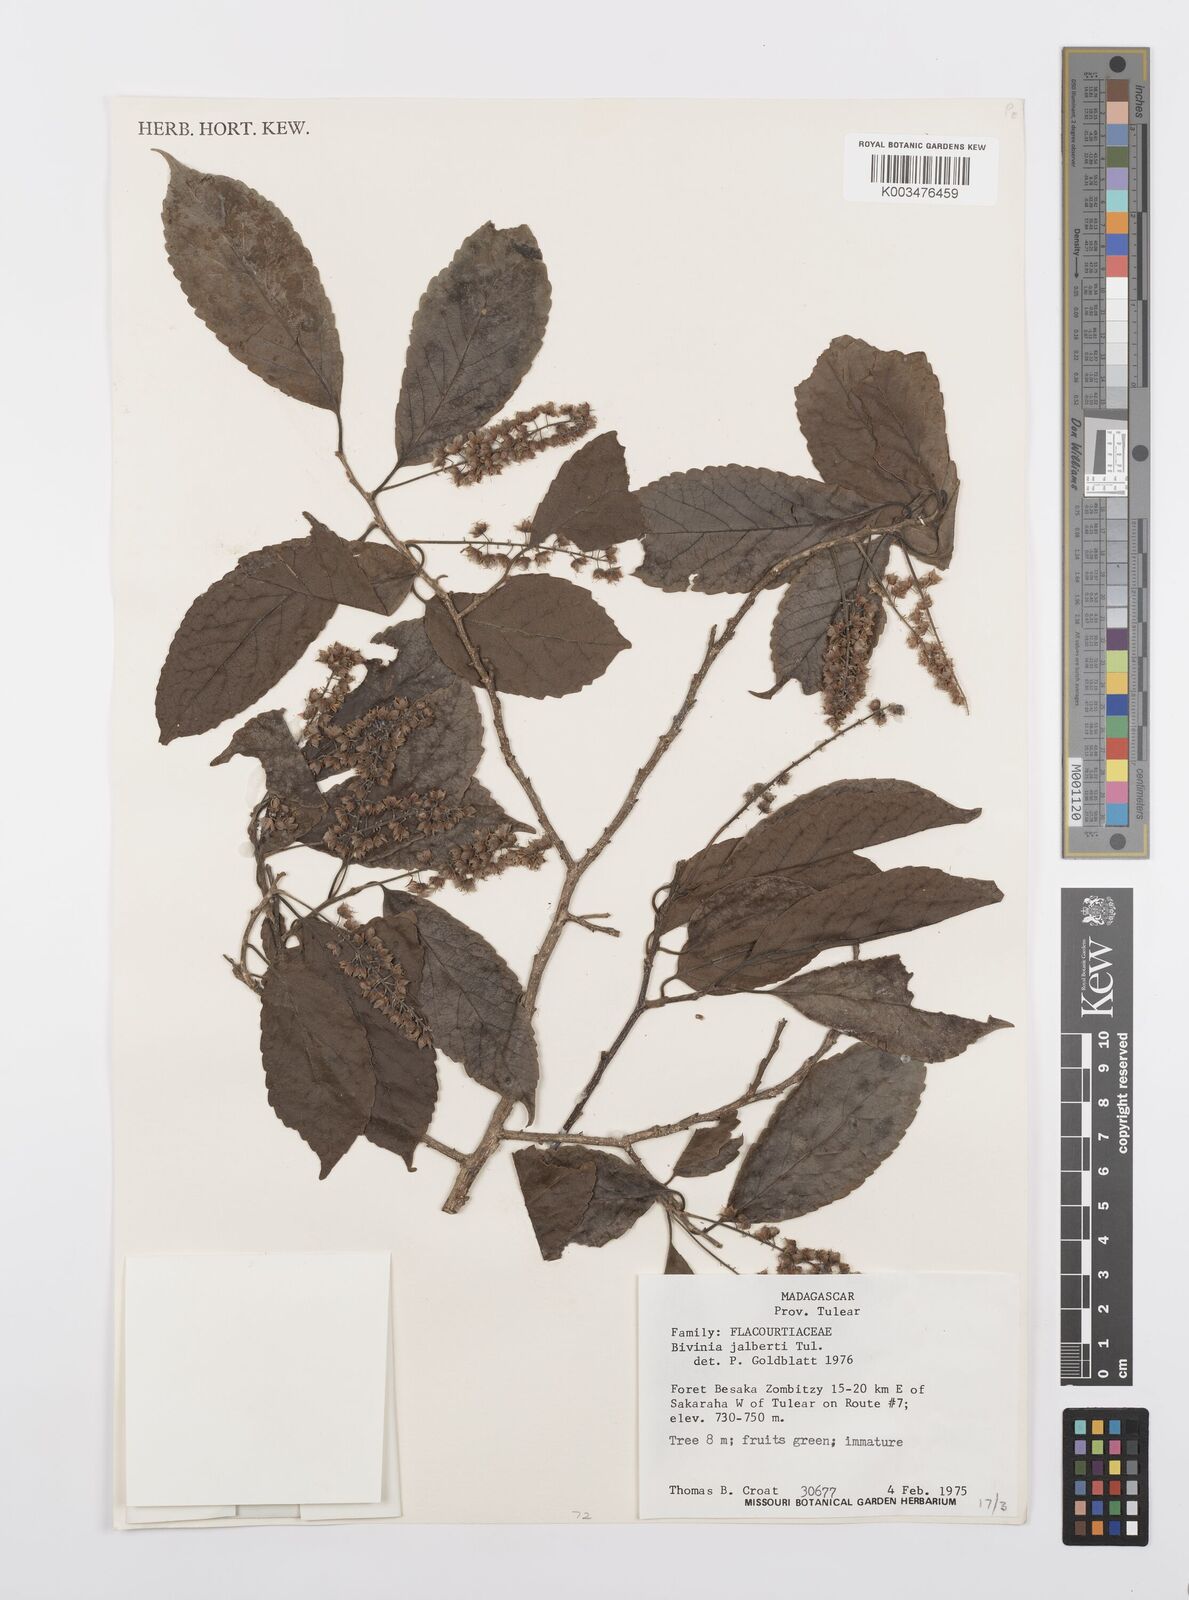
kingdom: Plantae
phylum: Tracheophyta
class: Magnoliopsida
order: Malpighiales
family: Salicaceae
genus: Bivinia
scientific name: Bivinia jalbertii
